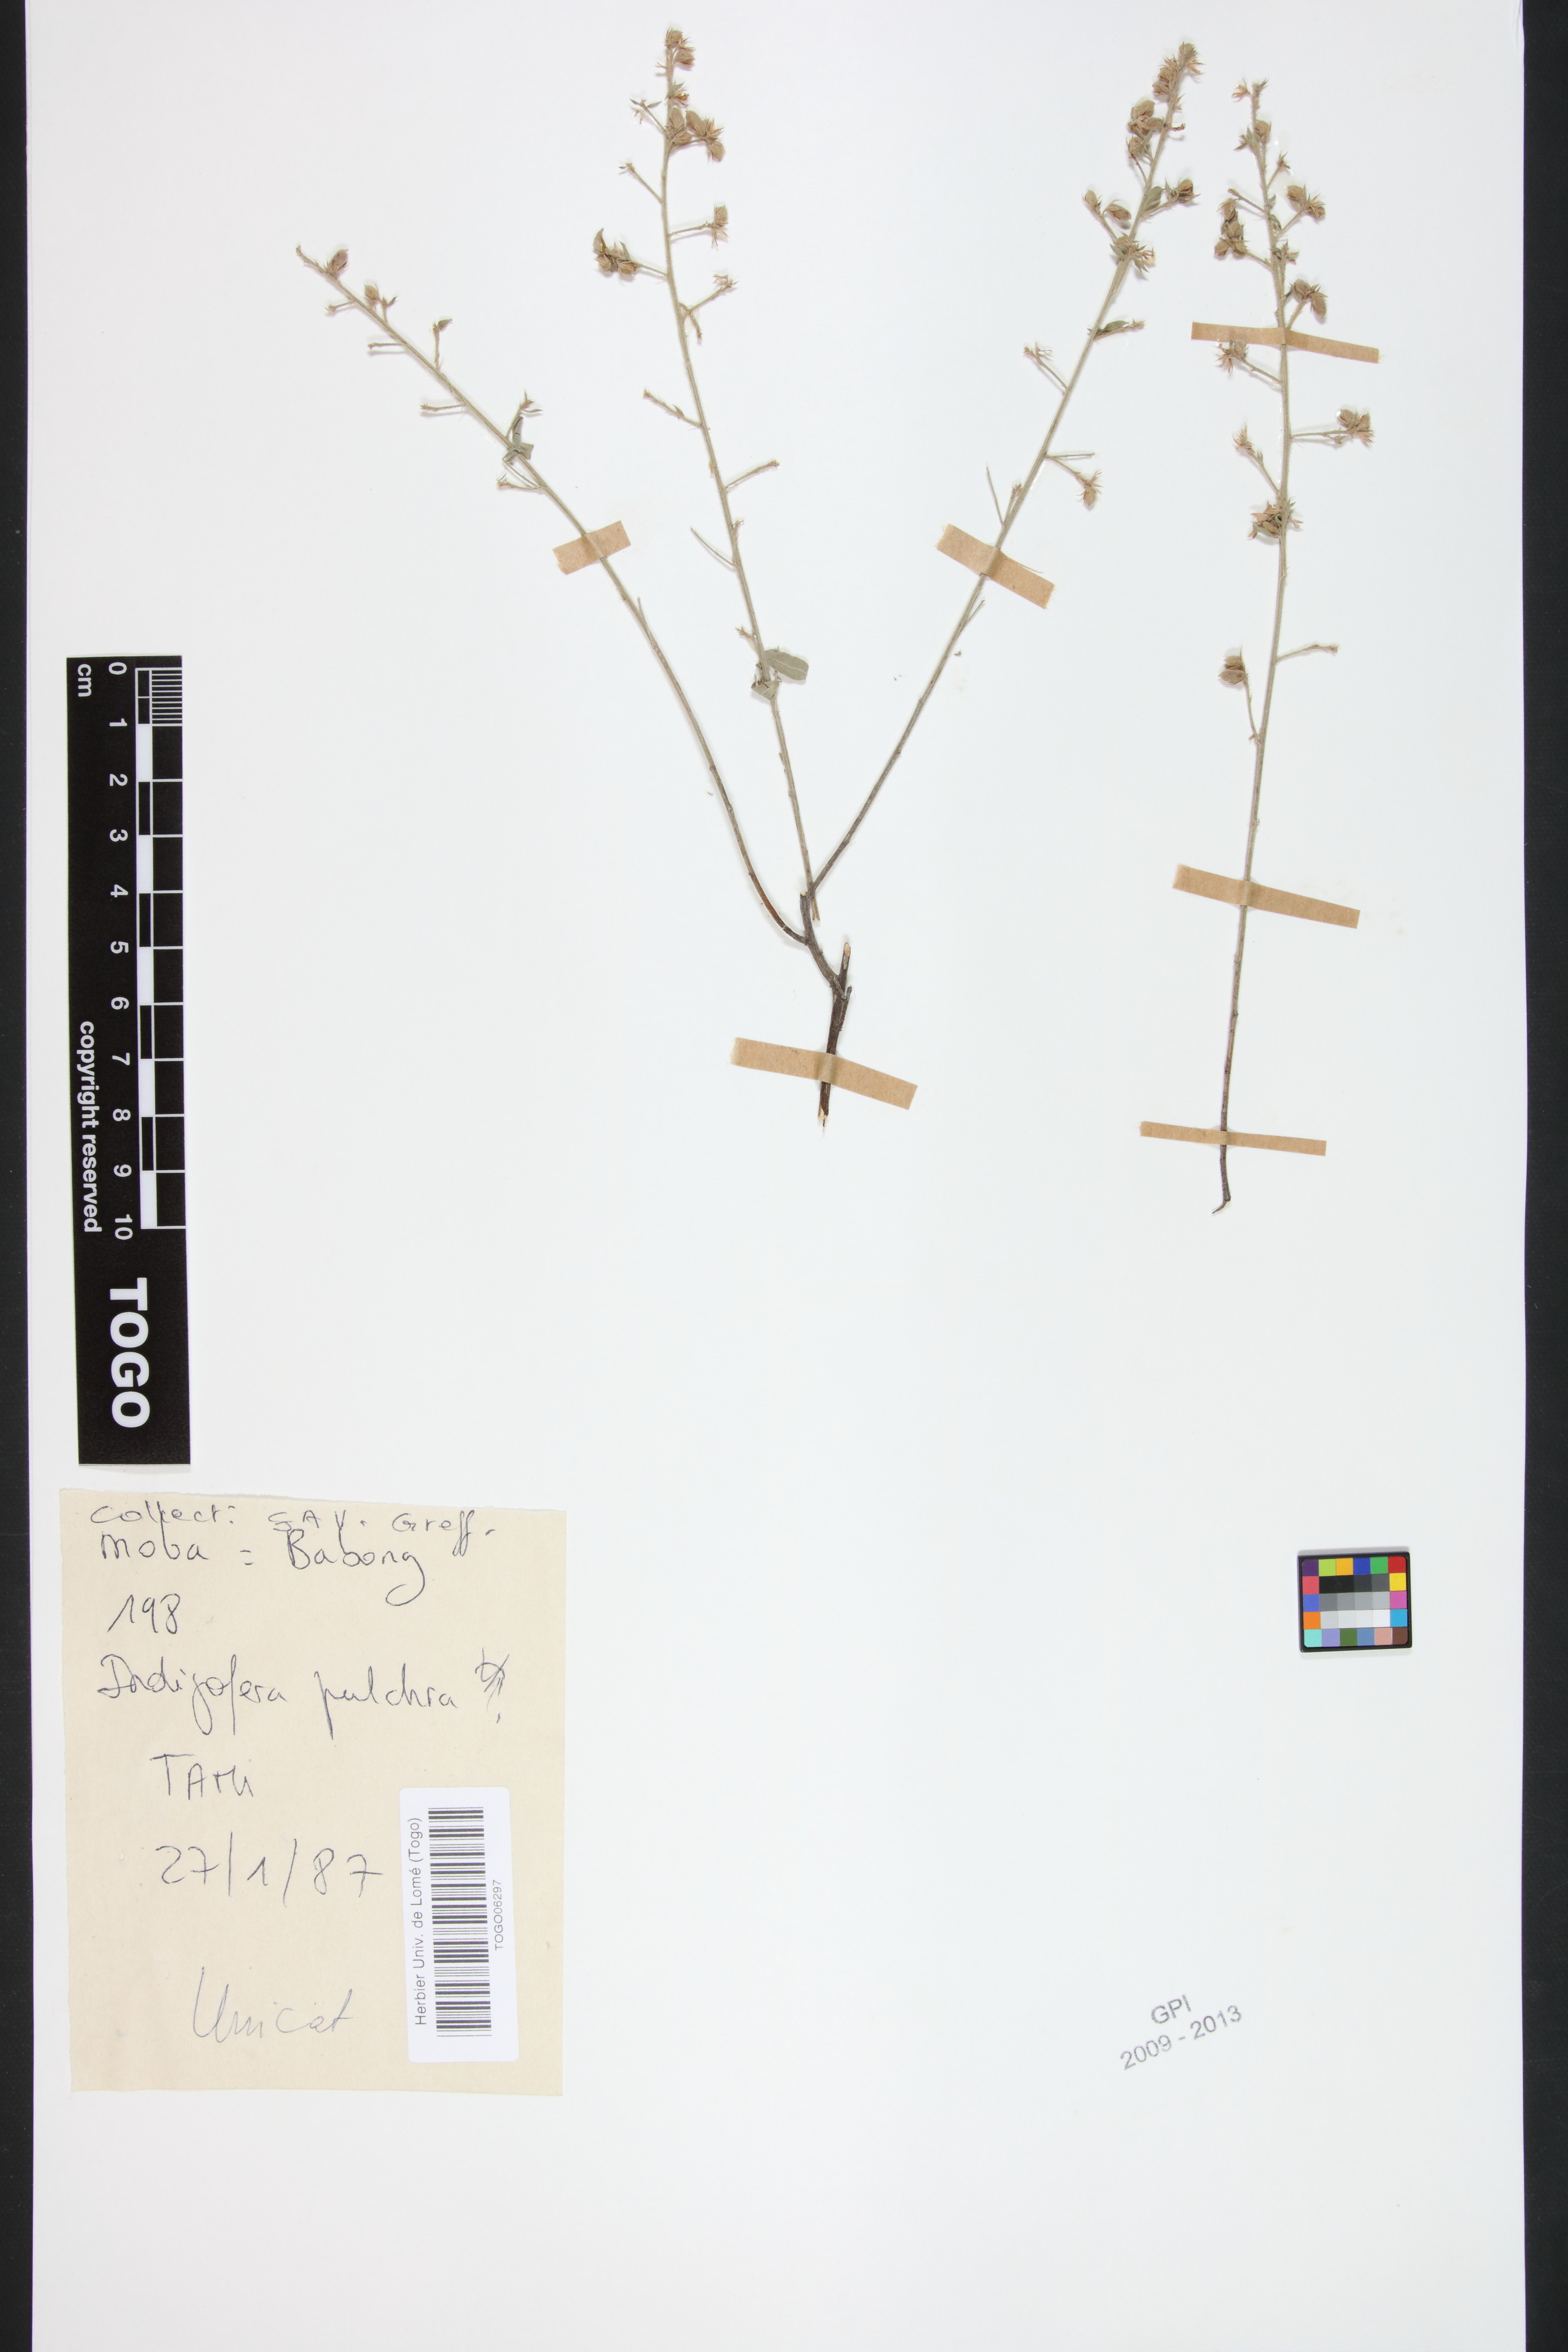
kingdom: Plantae
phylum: Tracheophyta
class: Magnoliopsida
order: Fabales
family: Fabaceae
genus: Indigofera
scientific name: Indigofera pulchra
